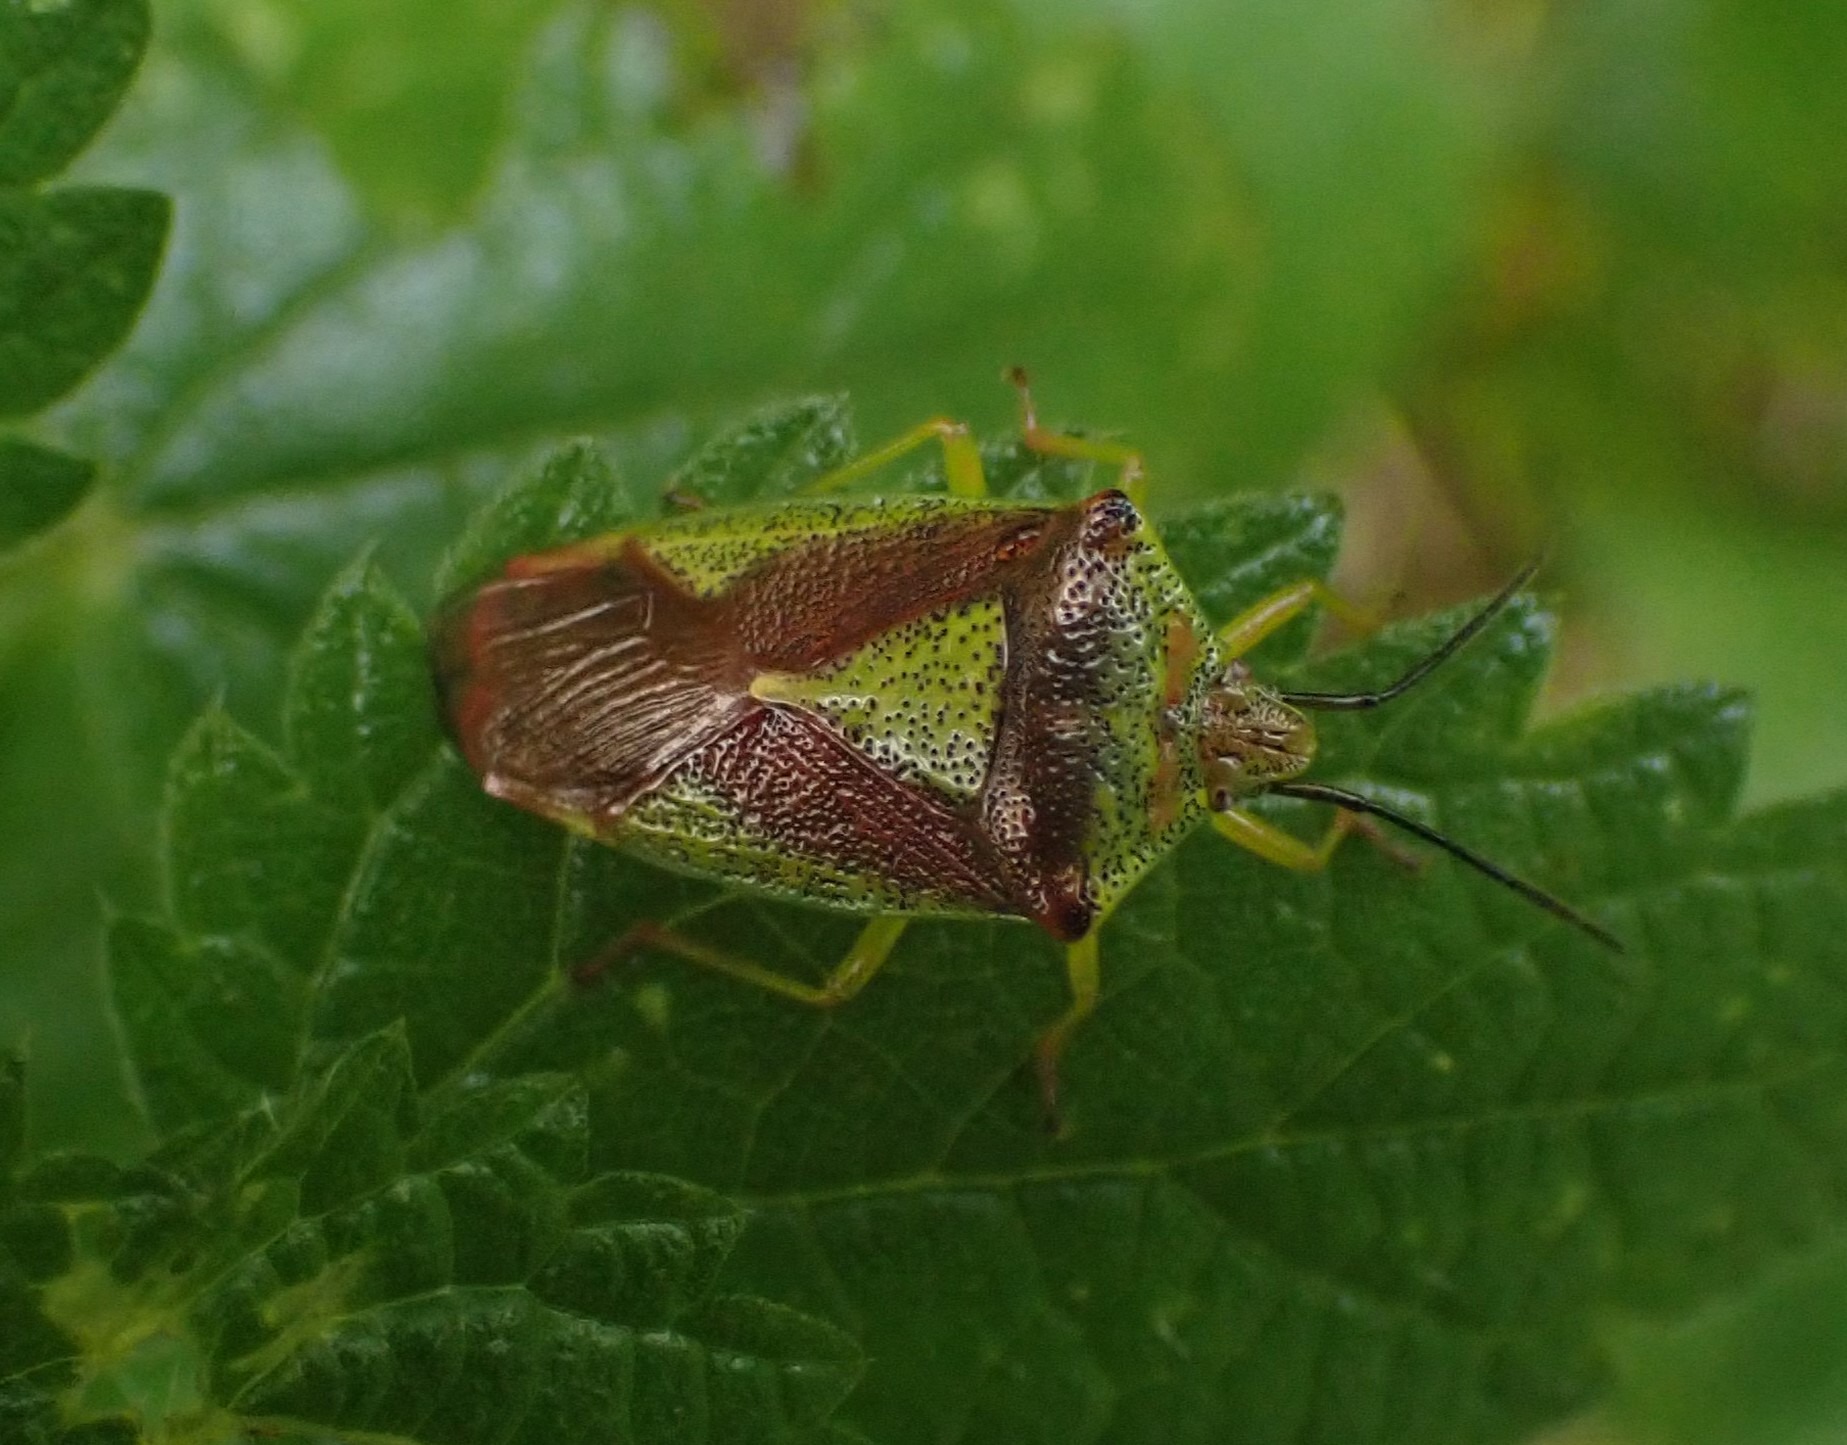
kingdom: Animalia
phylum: Arthropoda
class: Insecta
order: Hemiptera
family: Acanthosomatidae
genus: Acanthosoma
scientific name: Acanthosoma haemorrhoidale
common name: Stor løvtæge
